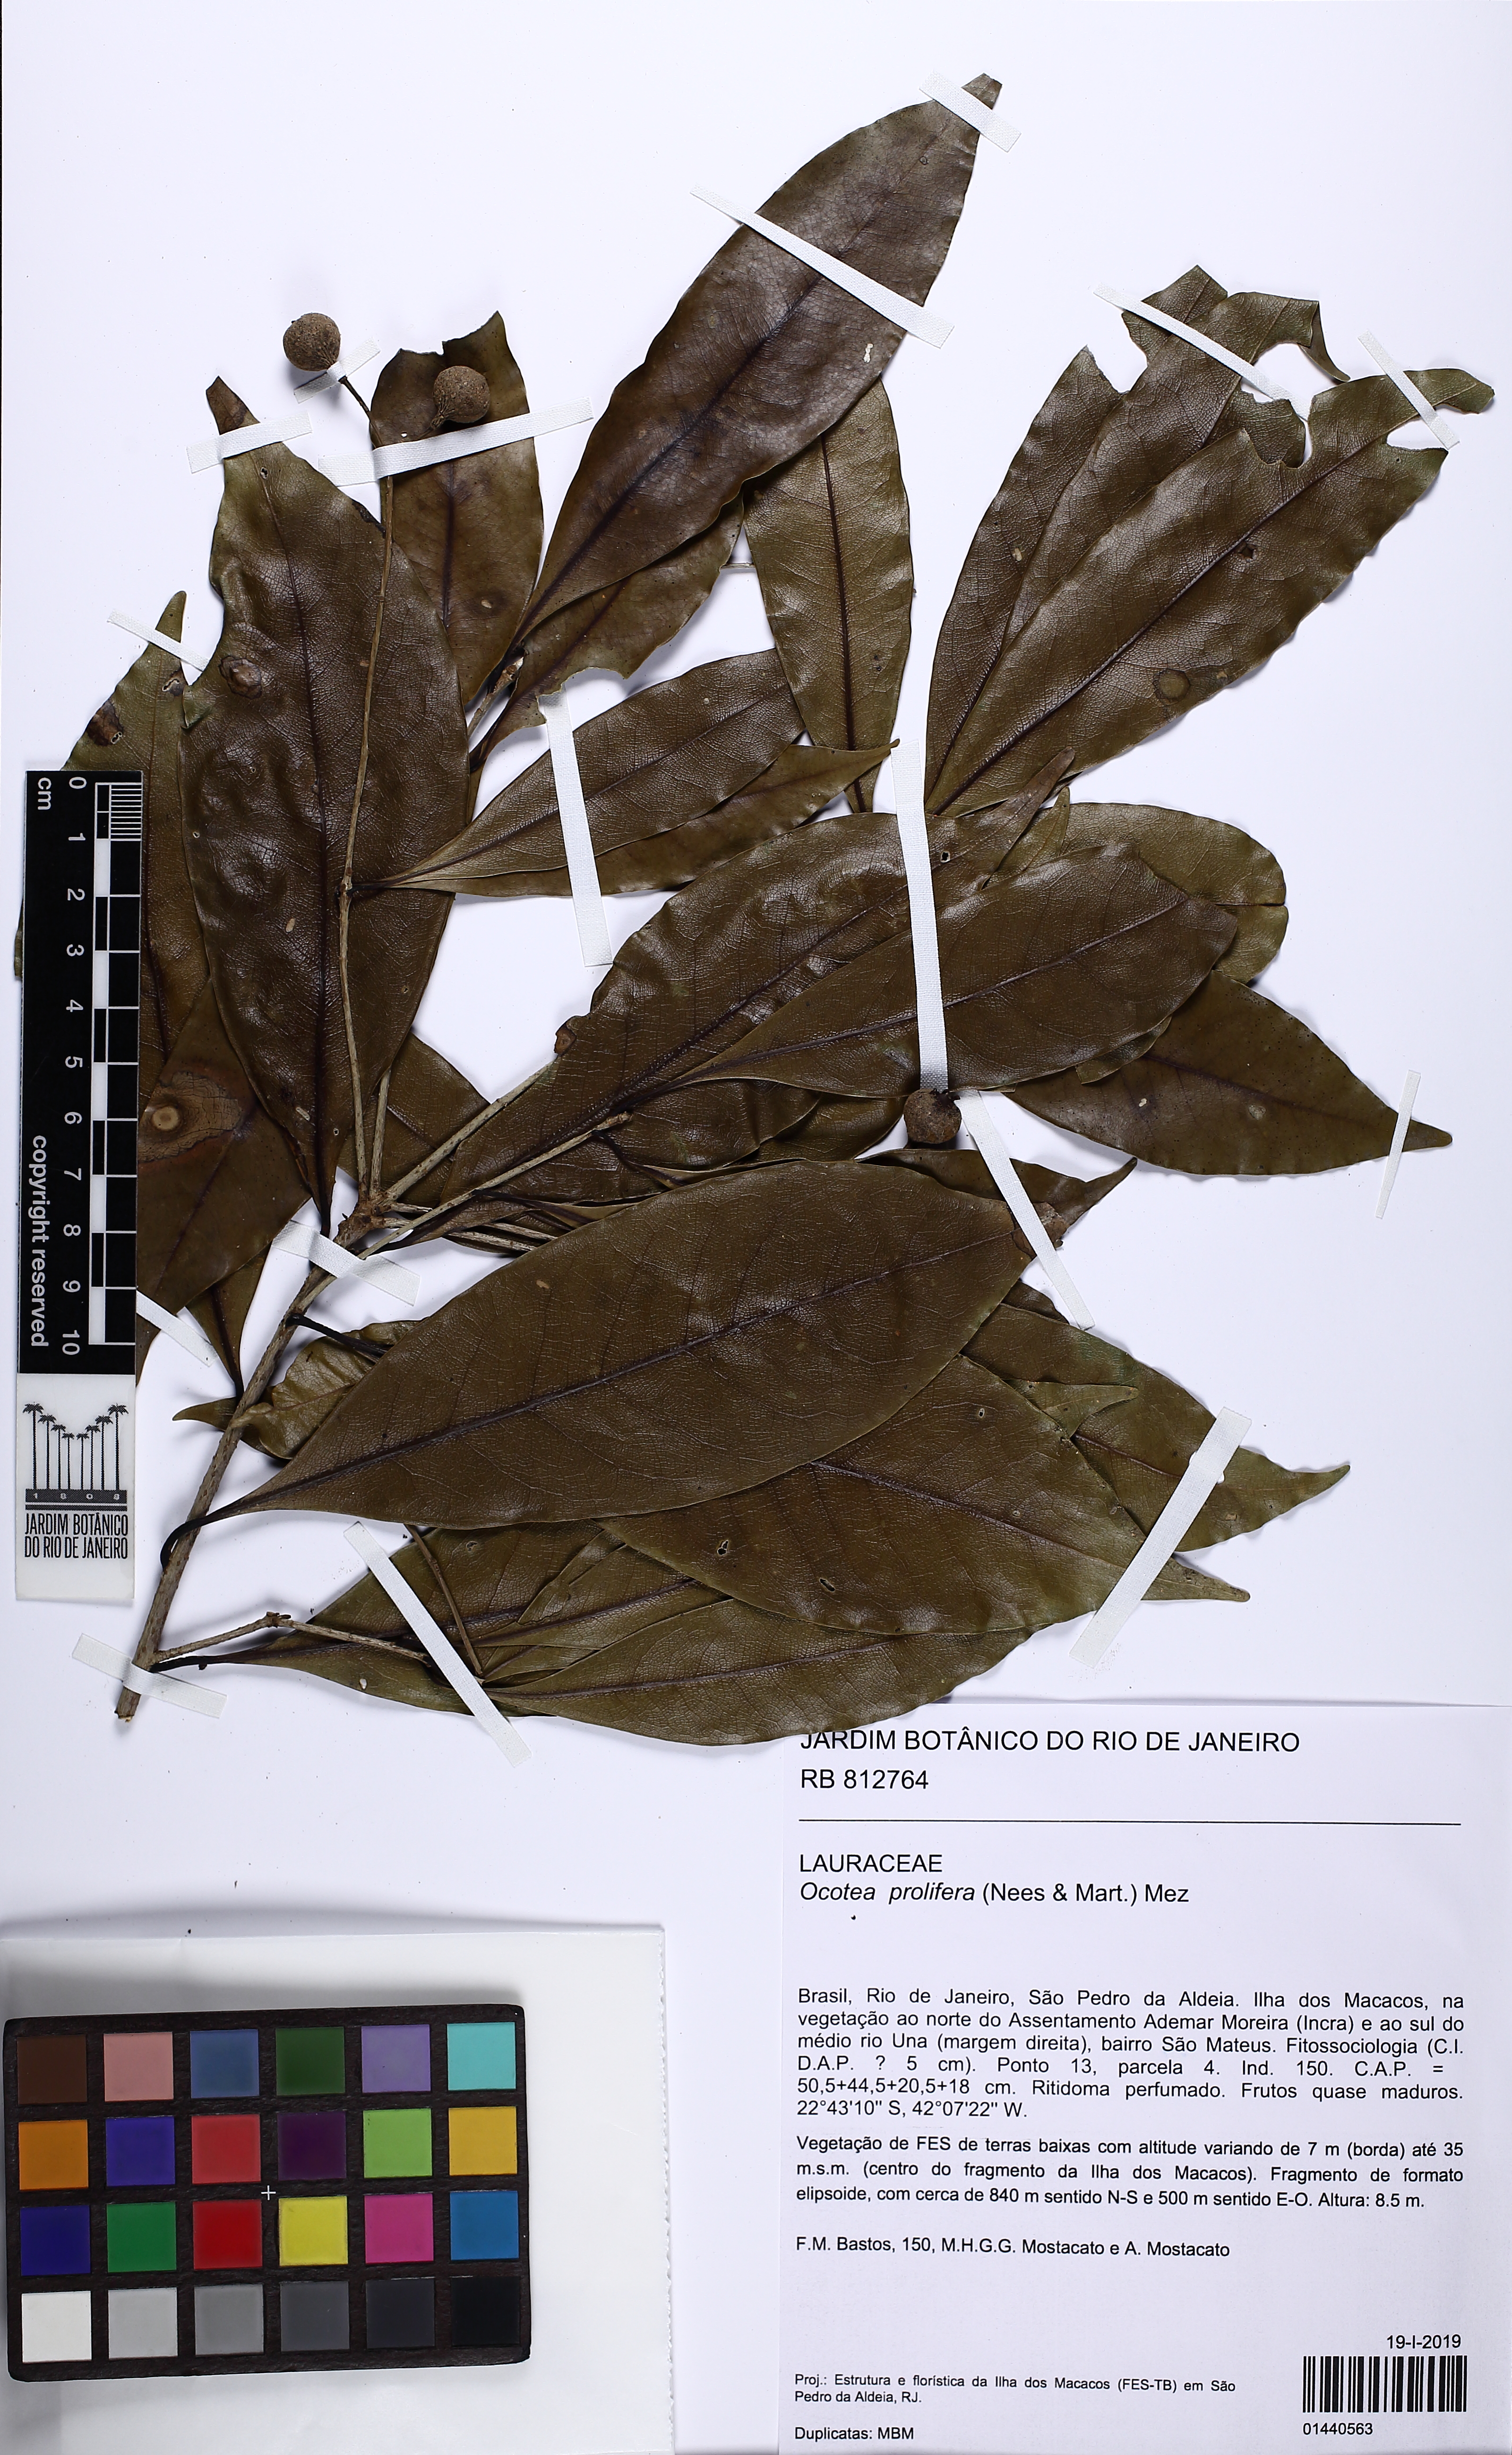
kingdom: Plantae
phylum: Tracheophyta
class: Magnoliopsida
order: Laurales
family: Lauraceae
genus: Mespilodaphne
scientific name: Mespilodaphne prolifera
